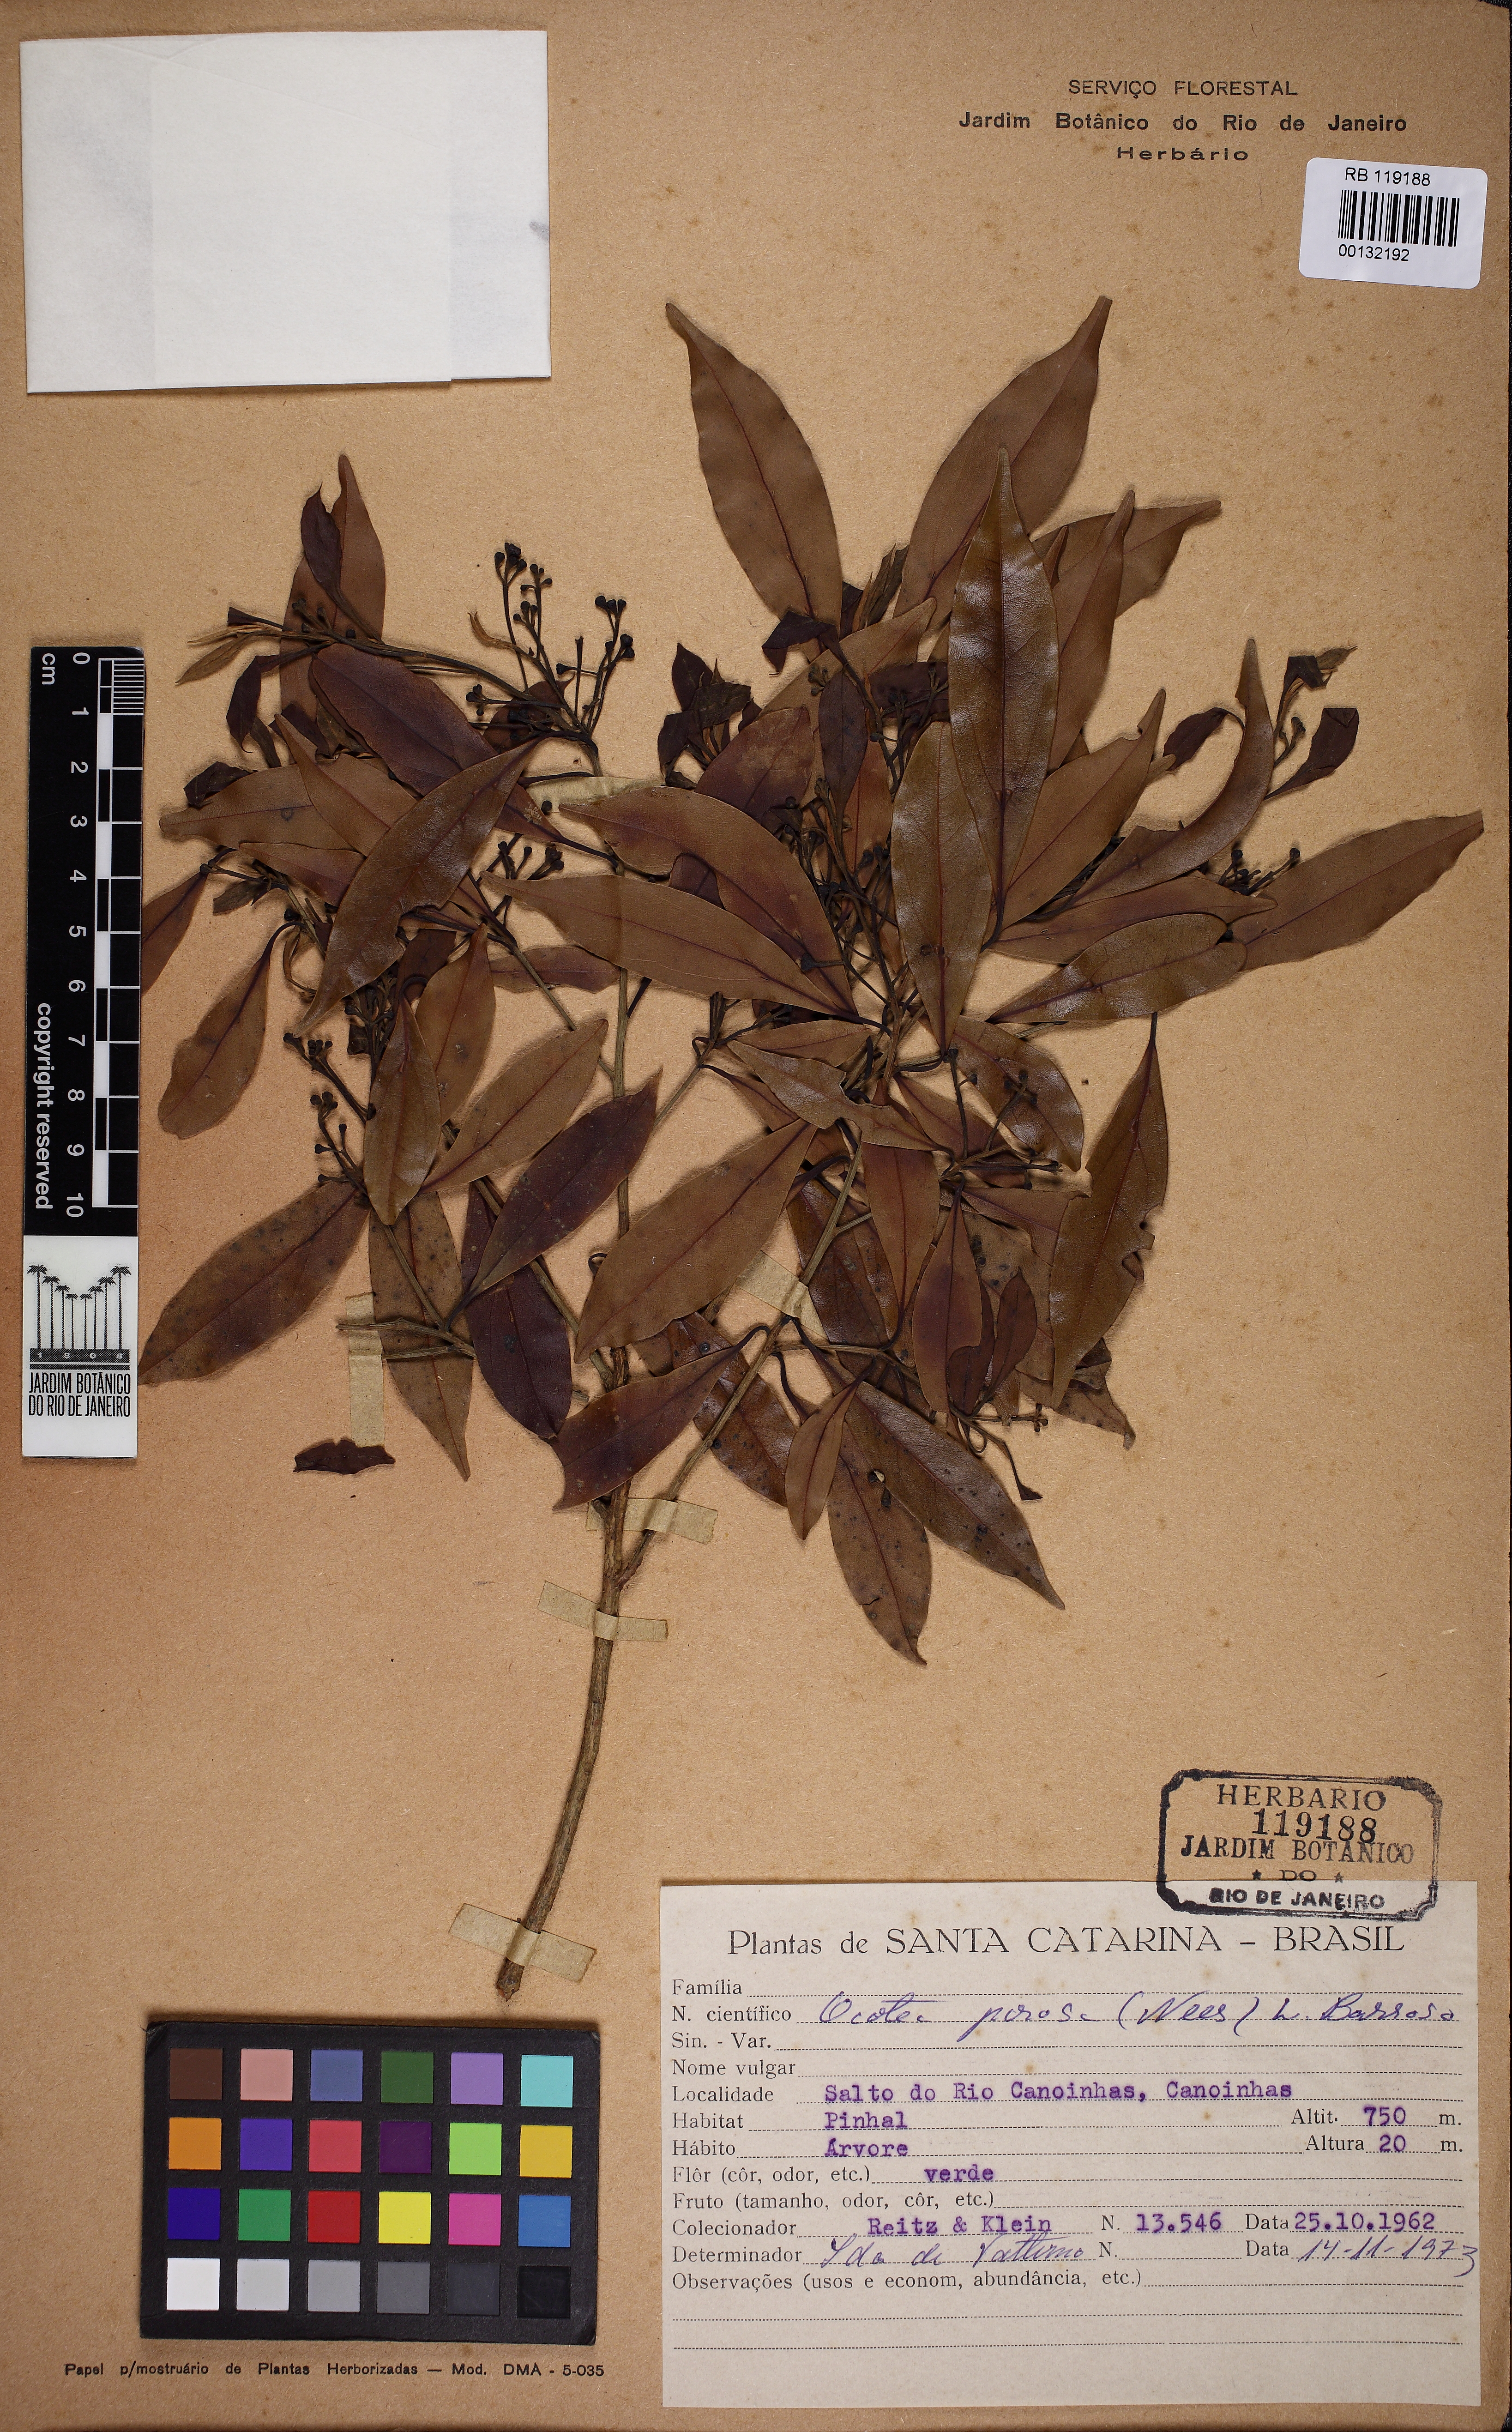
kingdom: Plantae
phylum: Tracheophyta
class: Magnoliopsida
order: Laurales
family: Lauraceae
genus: Ocotea
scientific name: Ocotea porosa
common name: Brazilian-walnut
